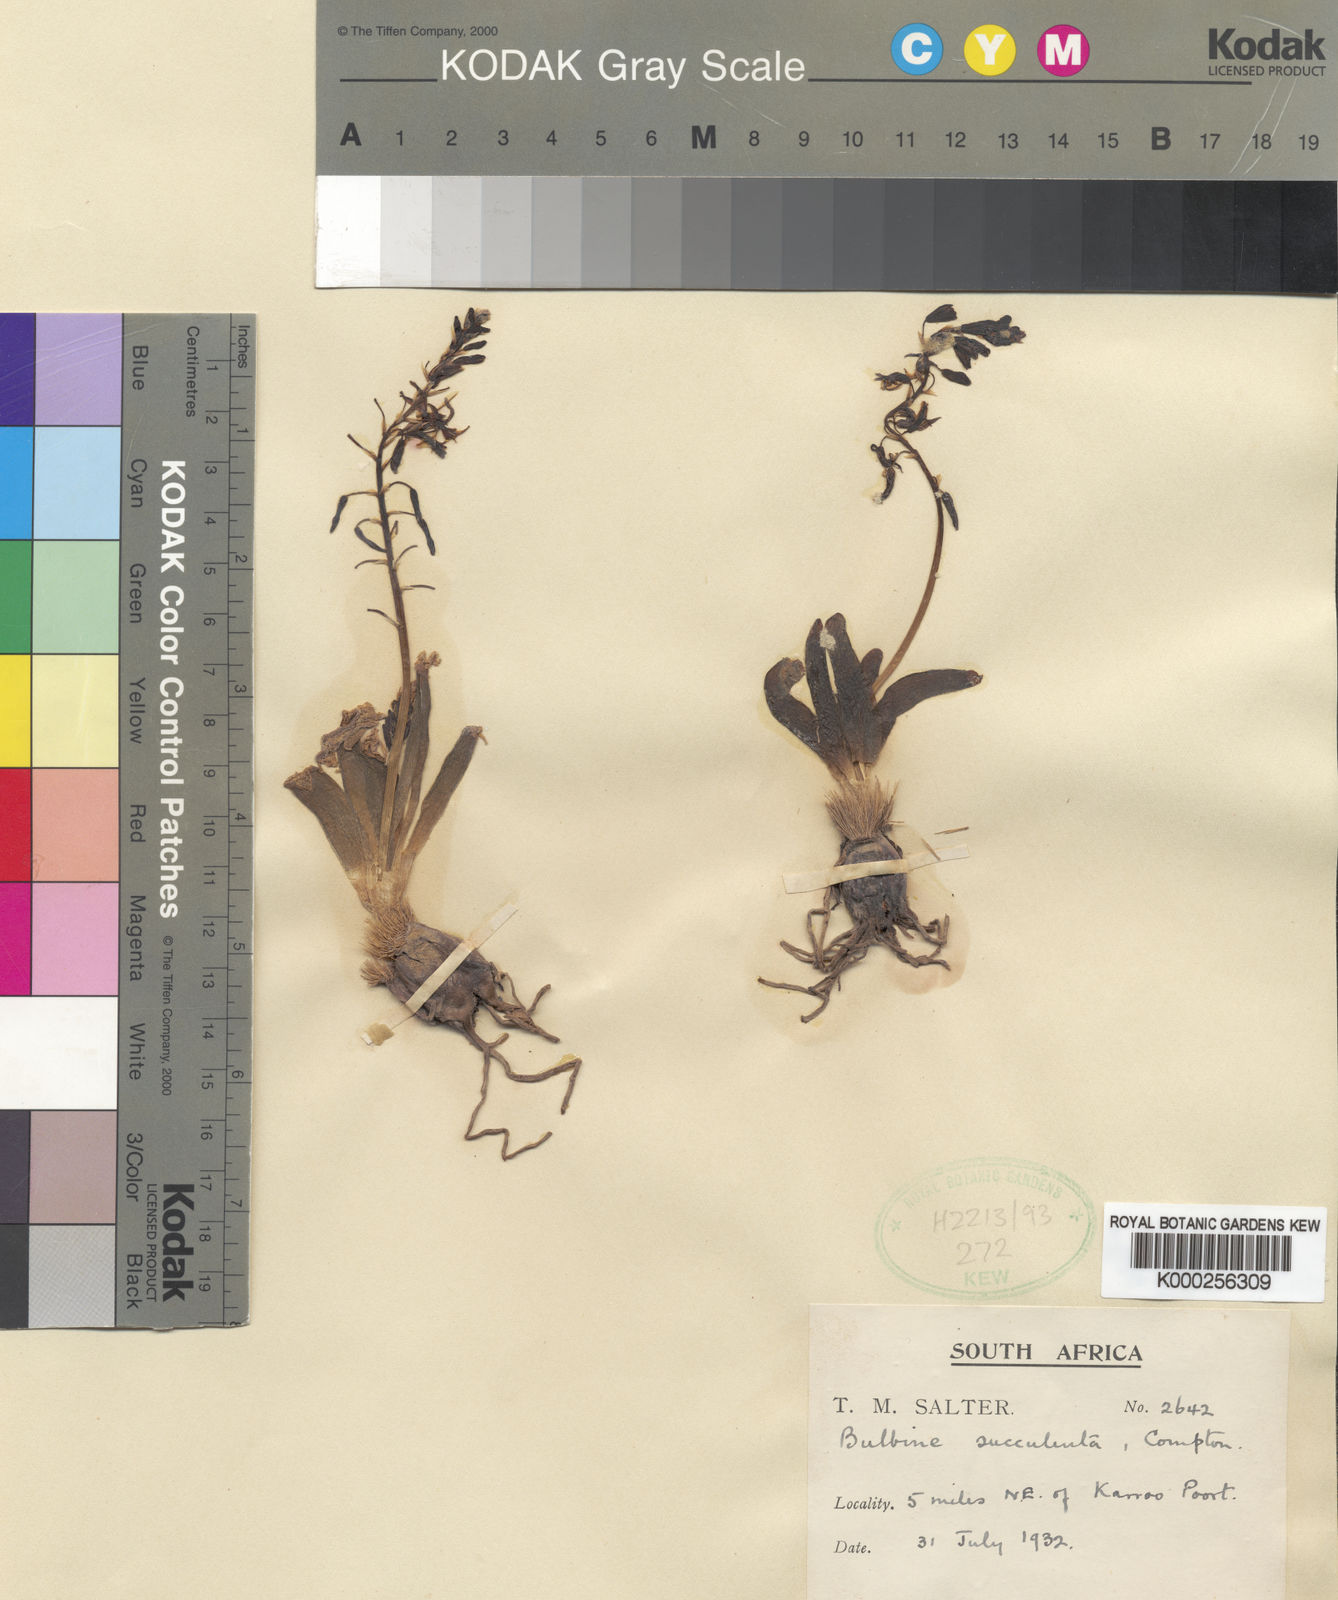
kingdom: Plantae
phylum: Tracheophyta
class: Liliopsida
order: Asparagales
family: Asphodelaceae
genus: Bulbine
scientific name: Bulbine succulenta
